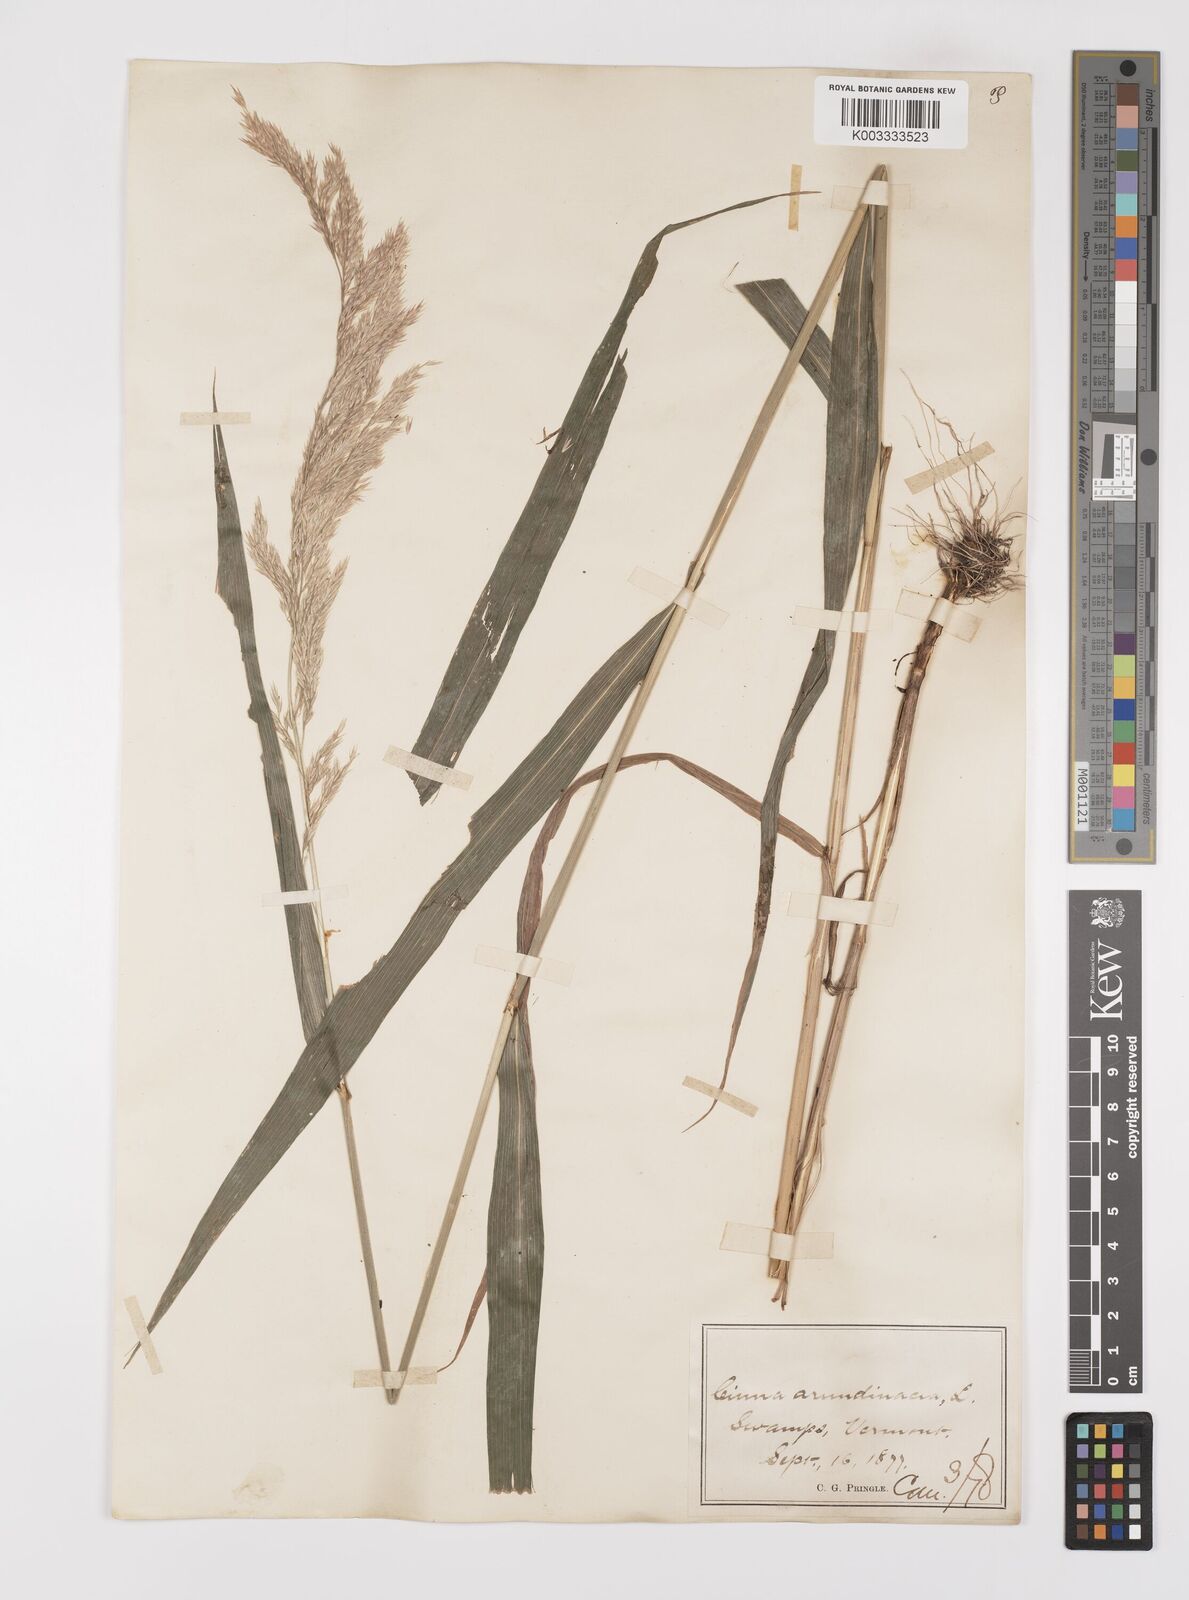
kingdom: Plantae
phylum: Tracheophyta
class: Liliopsida
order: Poales
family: Poaceae
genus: Cinna
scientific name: Cinna
